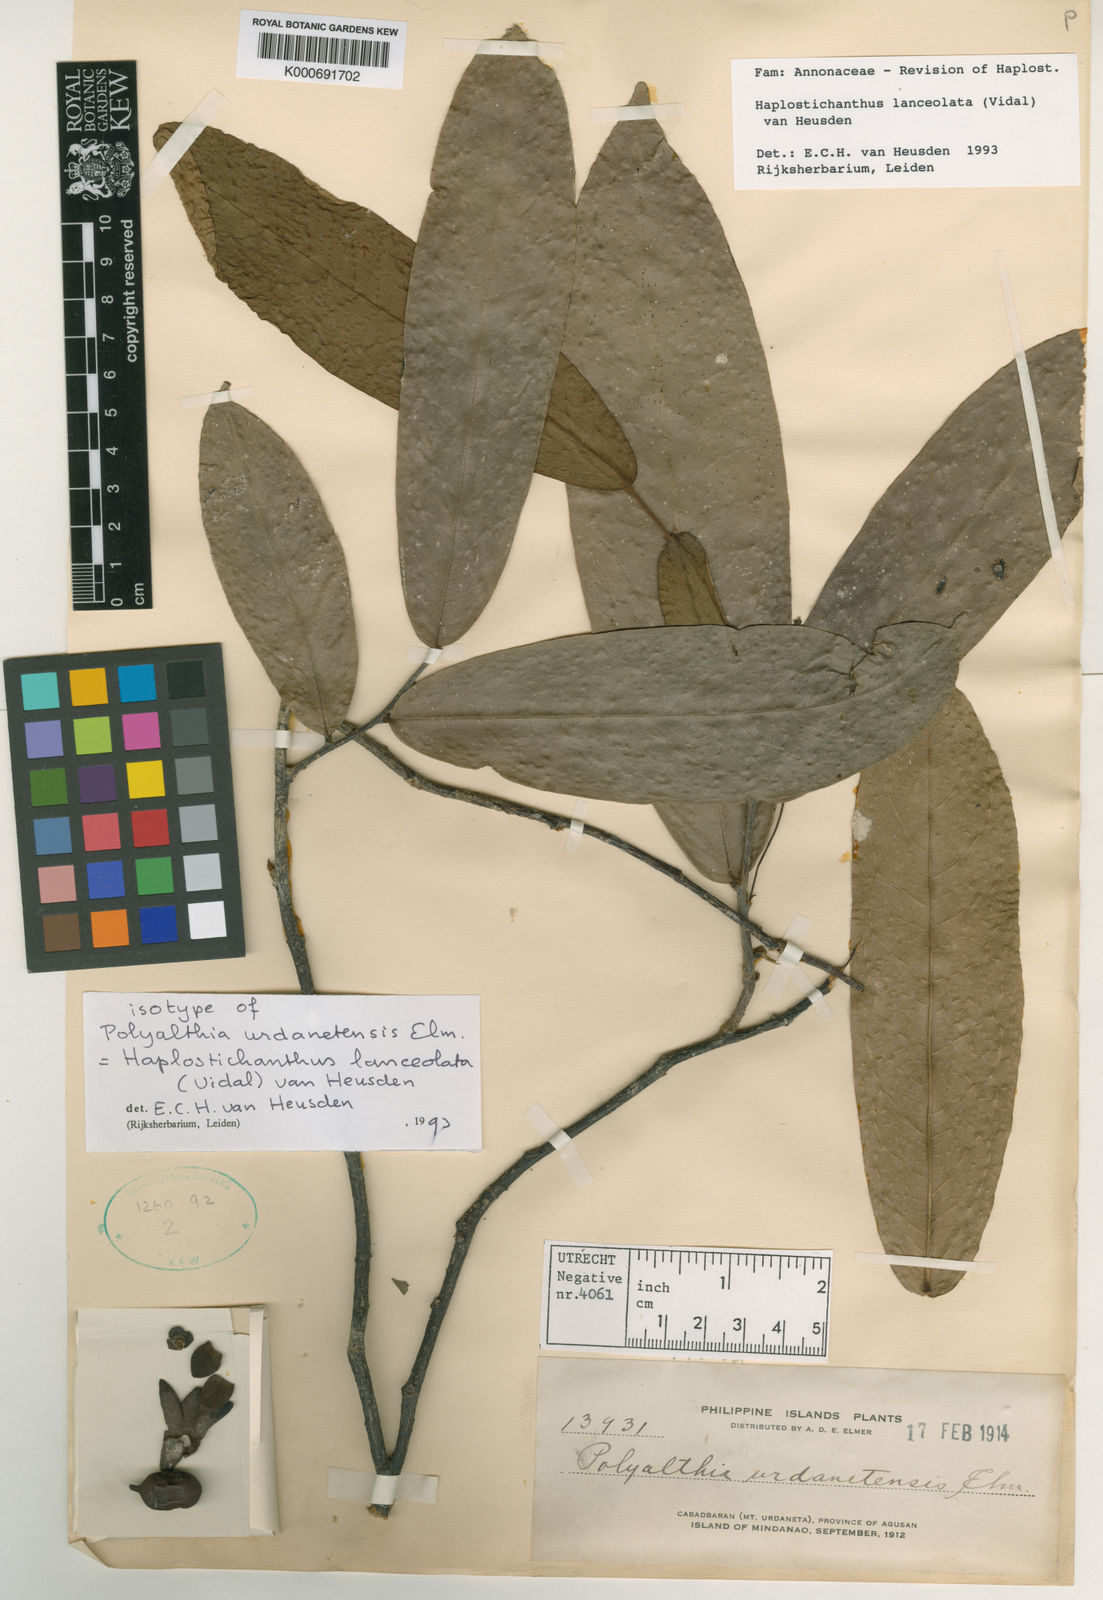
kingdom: Plantae
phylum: Tracheophyta
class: Magnoliopsida
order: Magnoliales
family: Annonaceae
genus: Papualthia
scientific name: Papualthia
